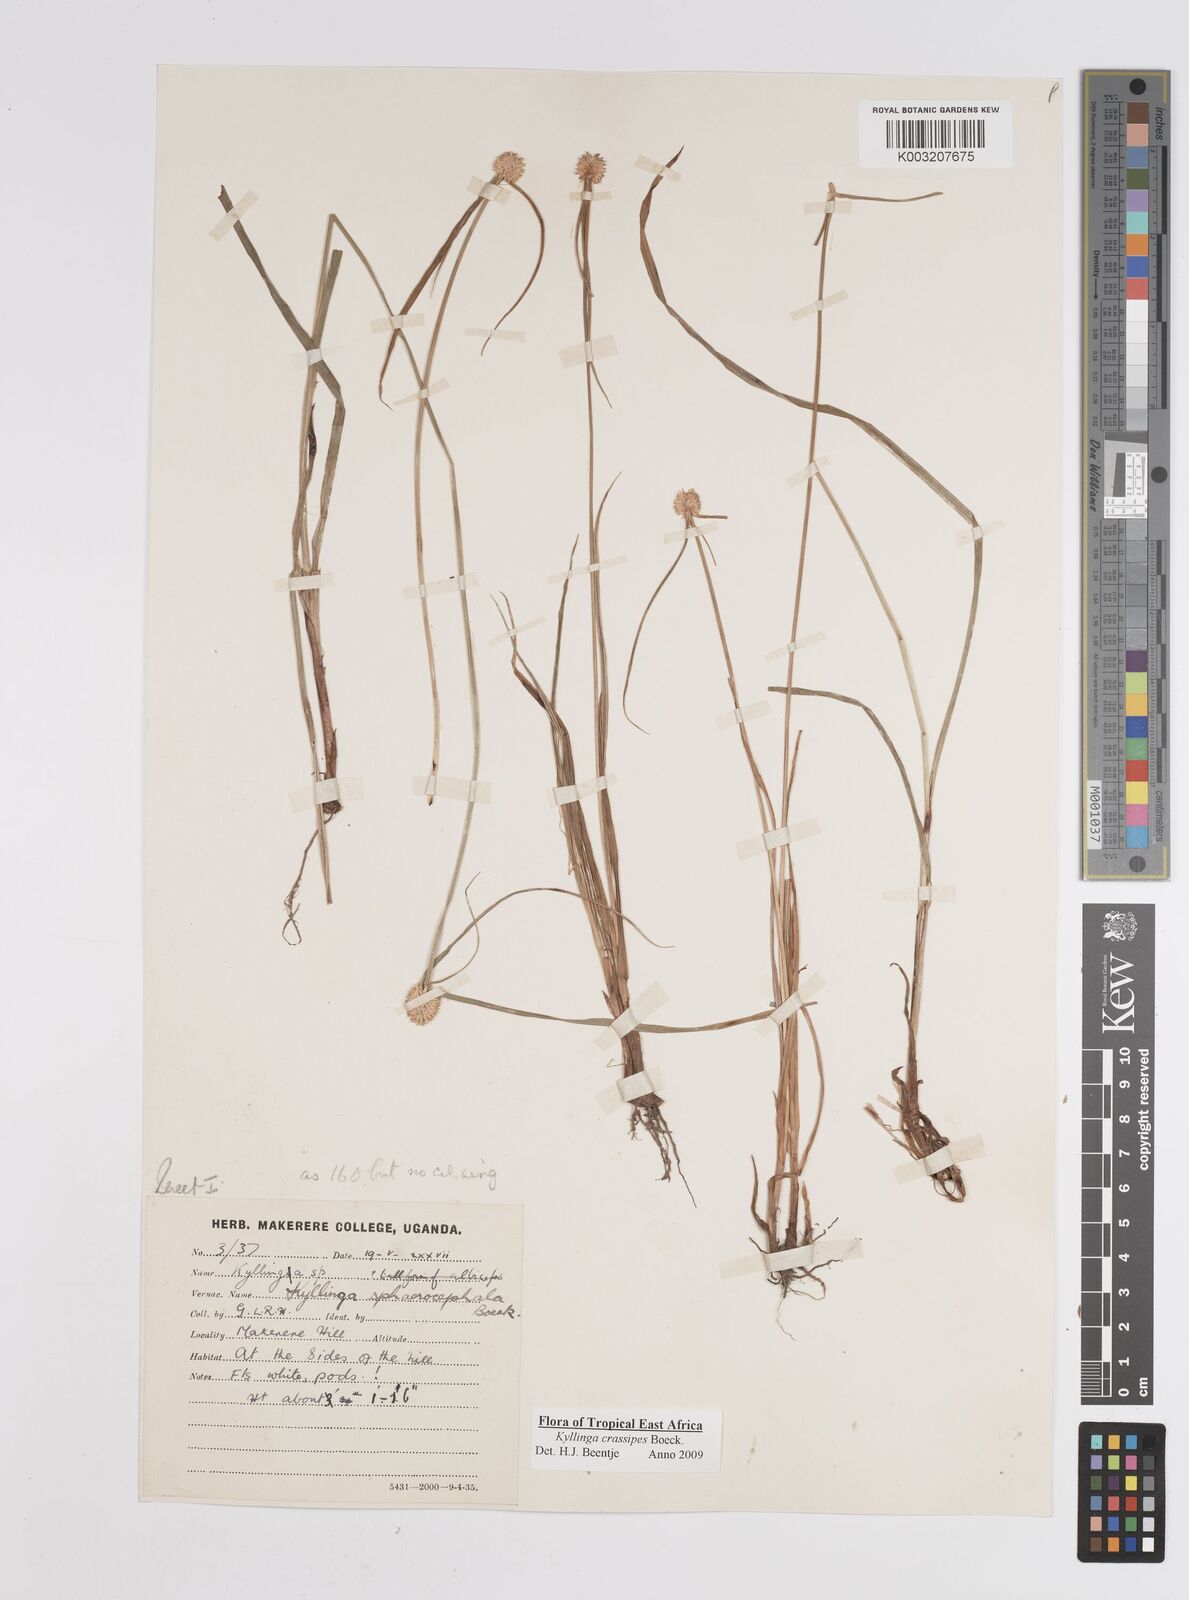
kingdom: Plantae
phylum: Tracheophyta
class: Liliopsida
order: Poales
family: Cyperaceae
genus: Cyperus
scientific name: Cyperus crassipes
